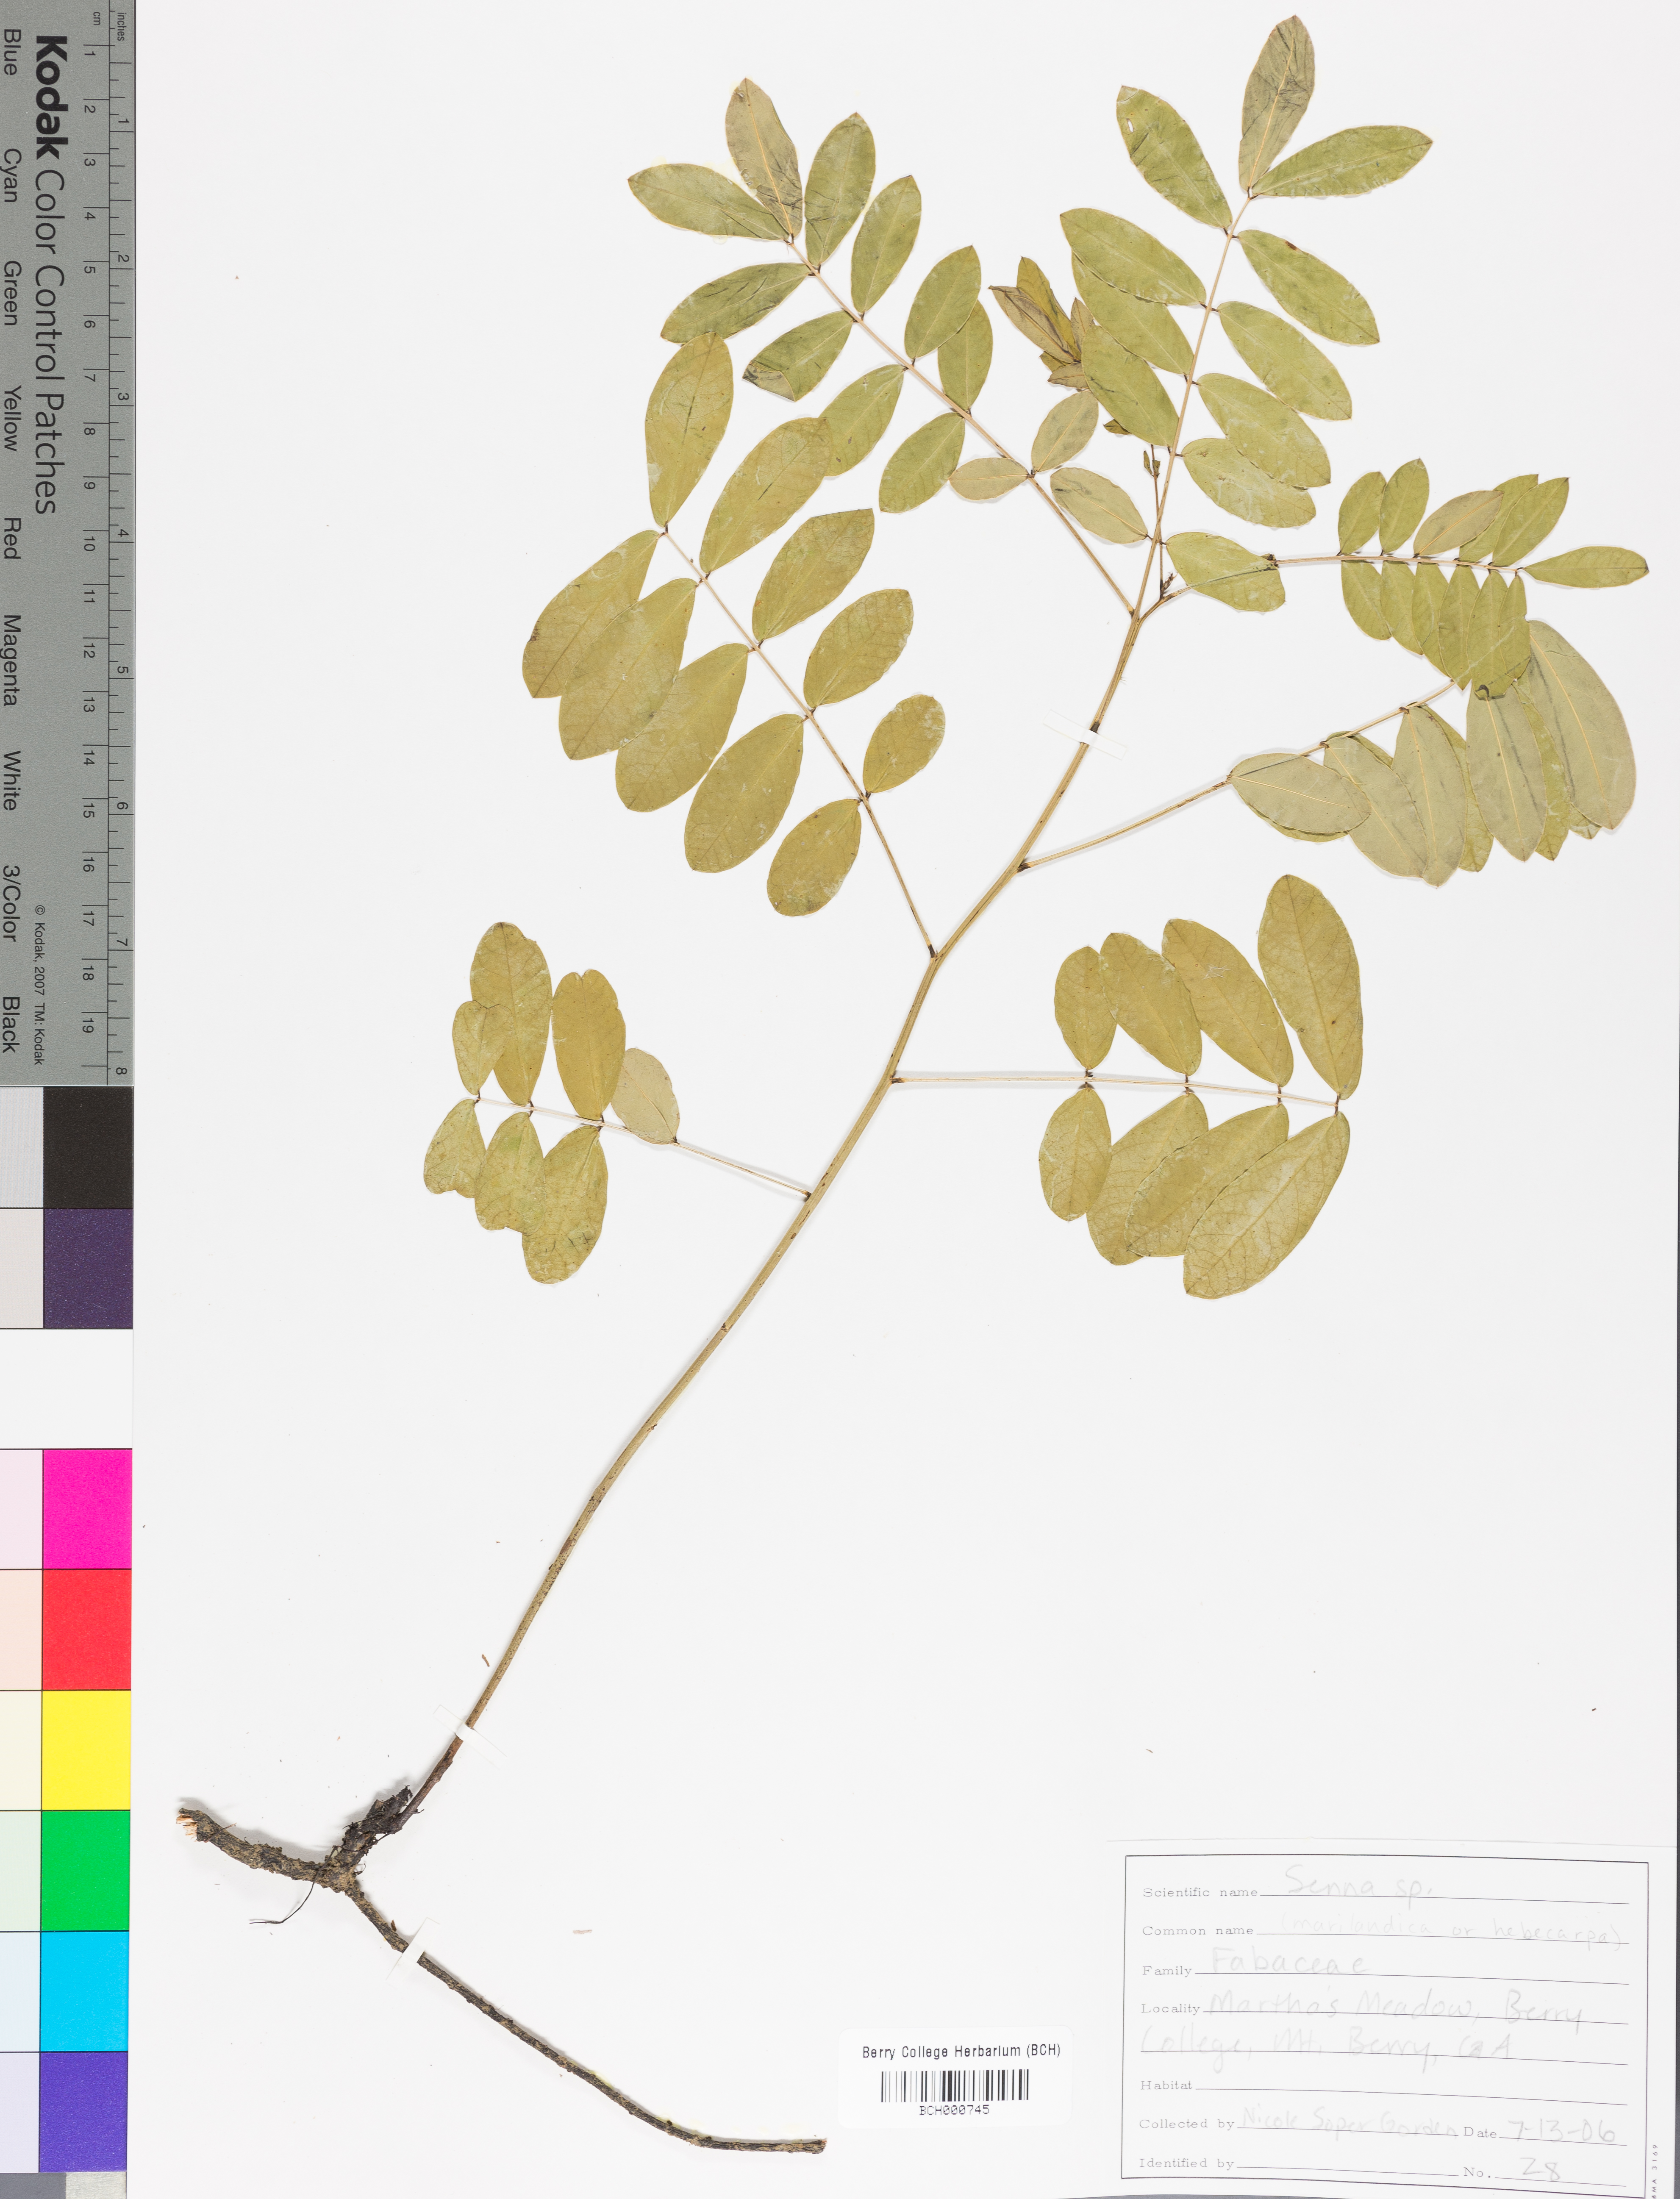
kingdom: Plantae
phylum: Tracheophyta
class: Magnoliopsida
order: Fabales
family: Fabaceae
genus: Senna
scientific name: Senna
